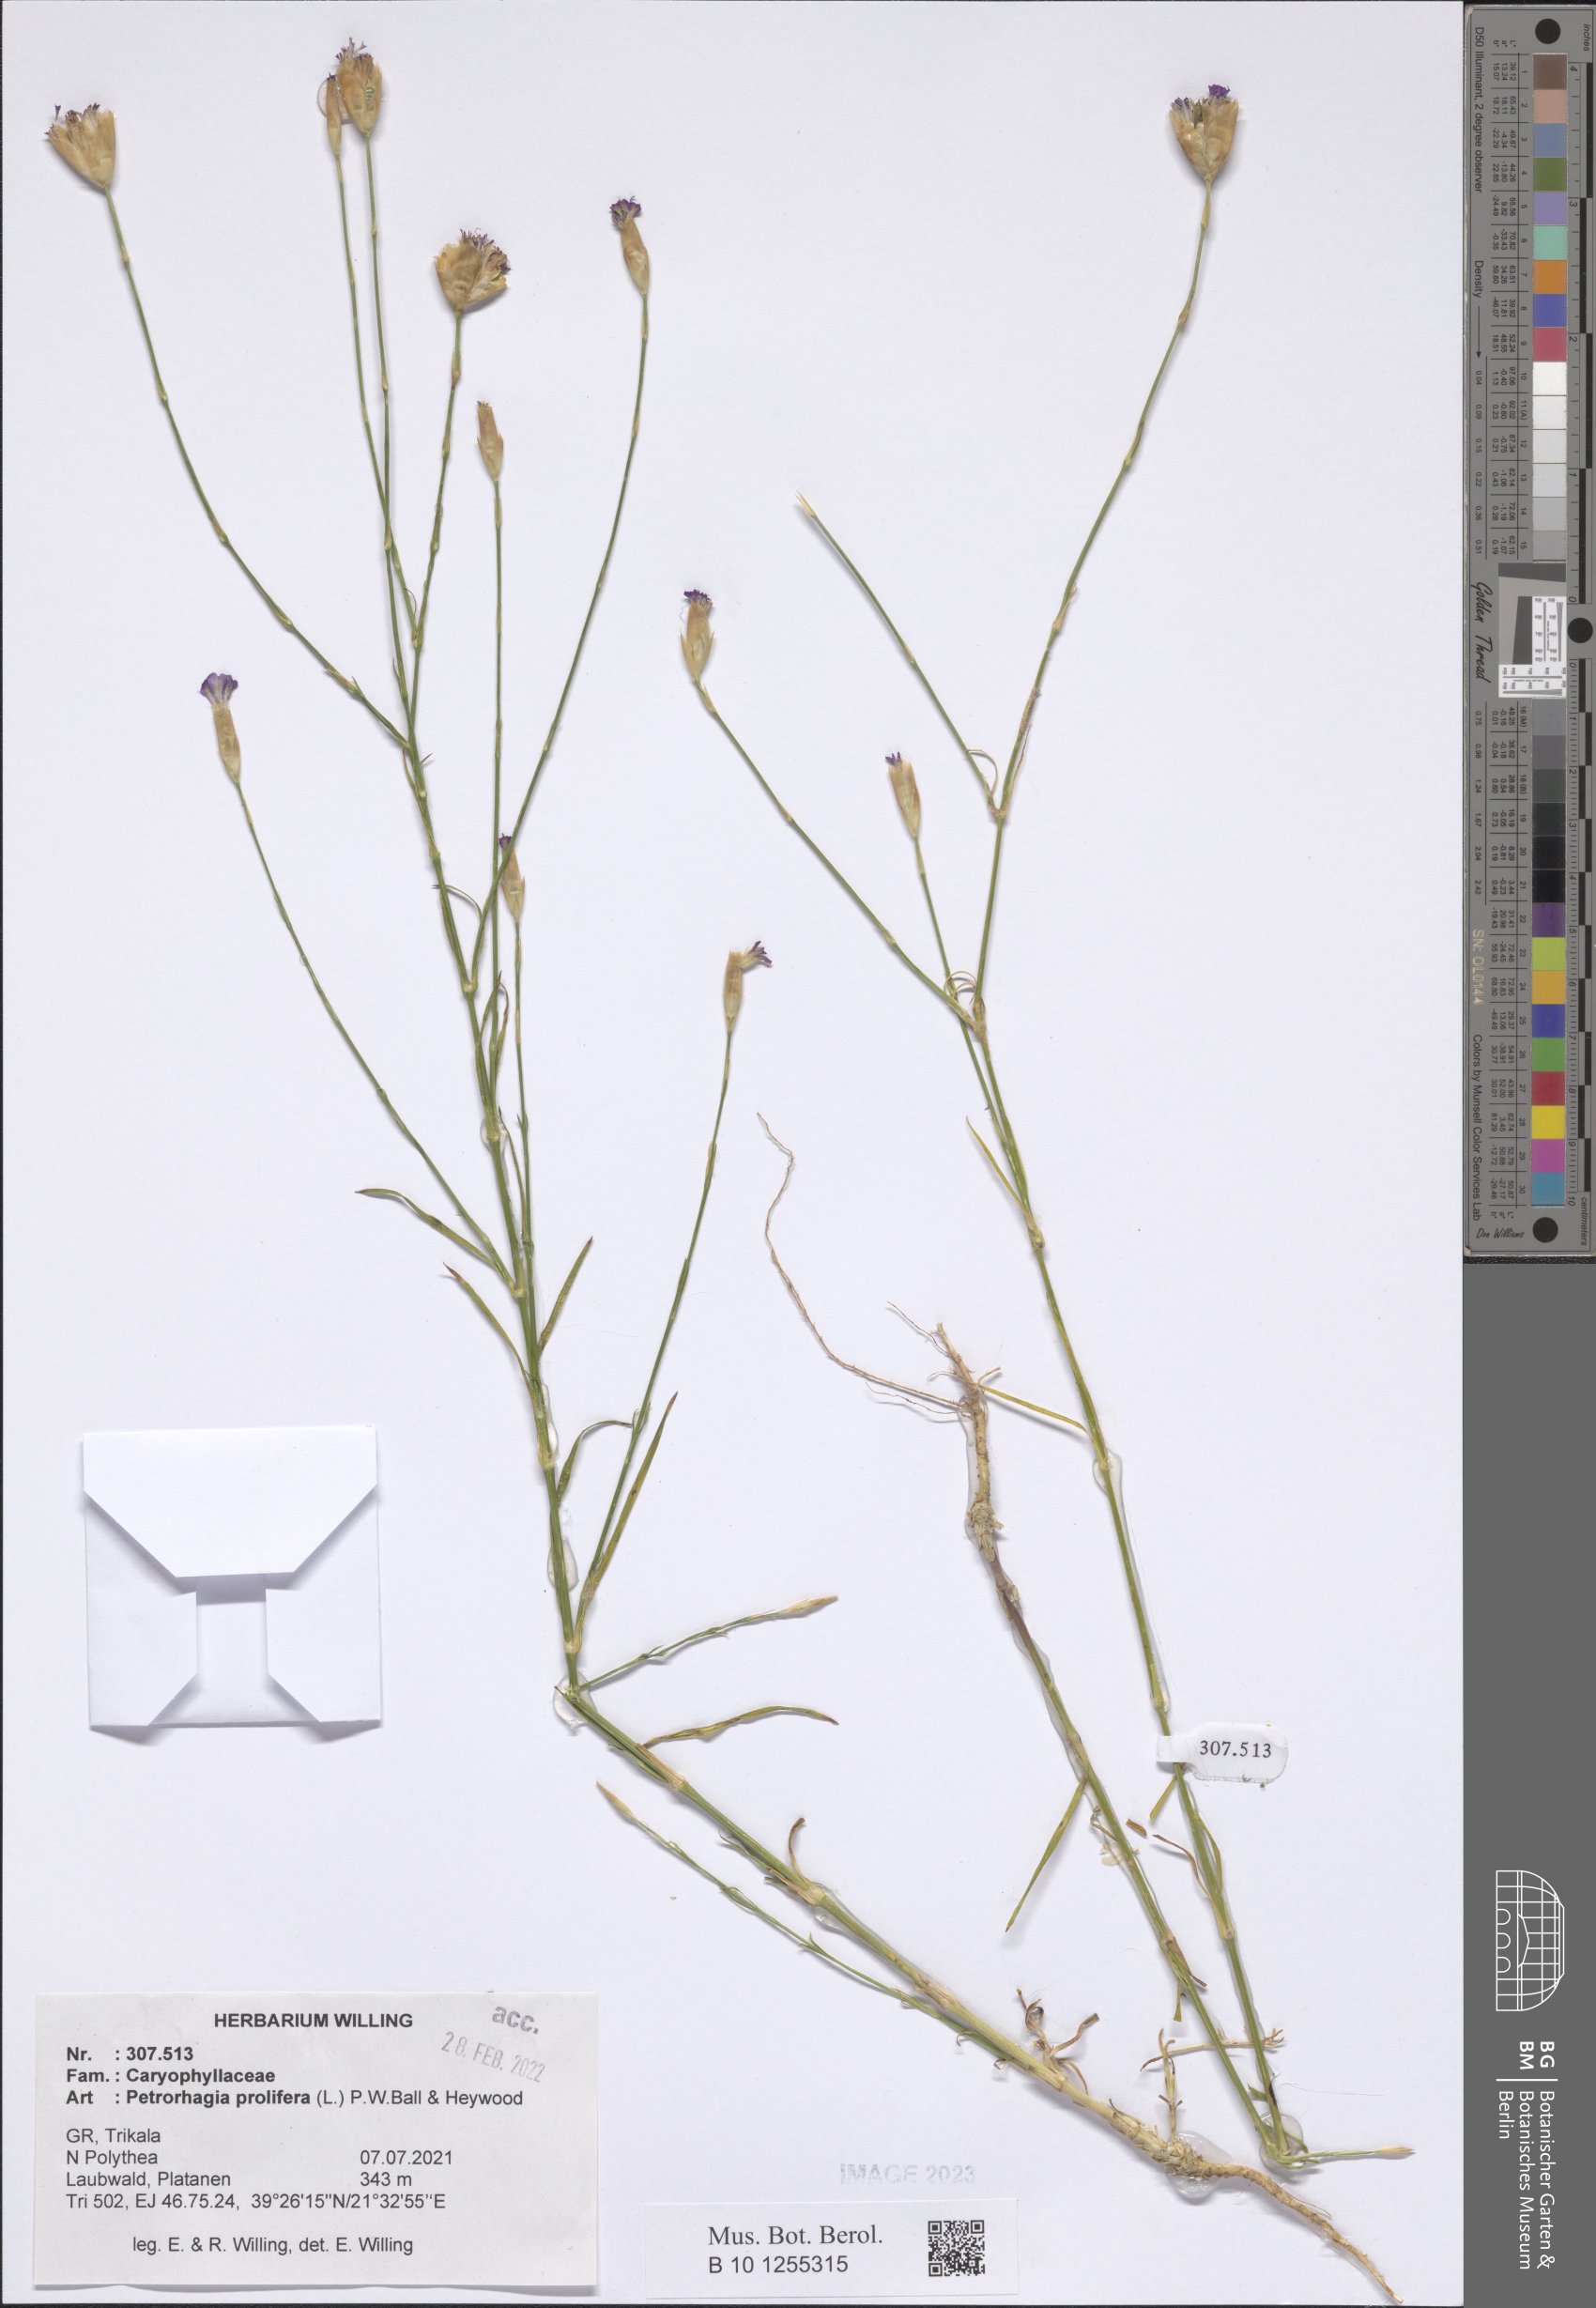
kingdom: Plantae
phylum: Tracheophyta
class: Magnoliopsida
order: Caryophyllales
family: Caryophyllaceae
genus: Petrorhagia
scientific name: Petrorhagia prolifera
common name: Proliferous pink
